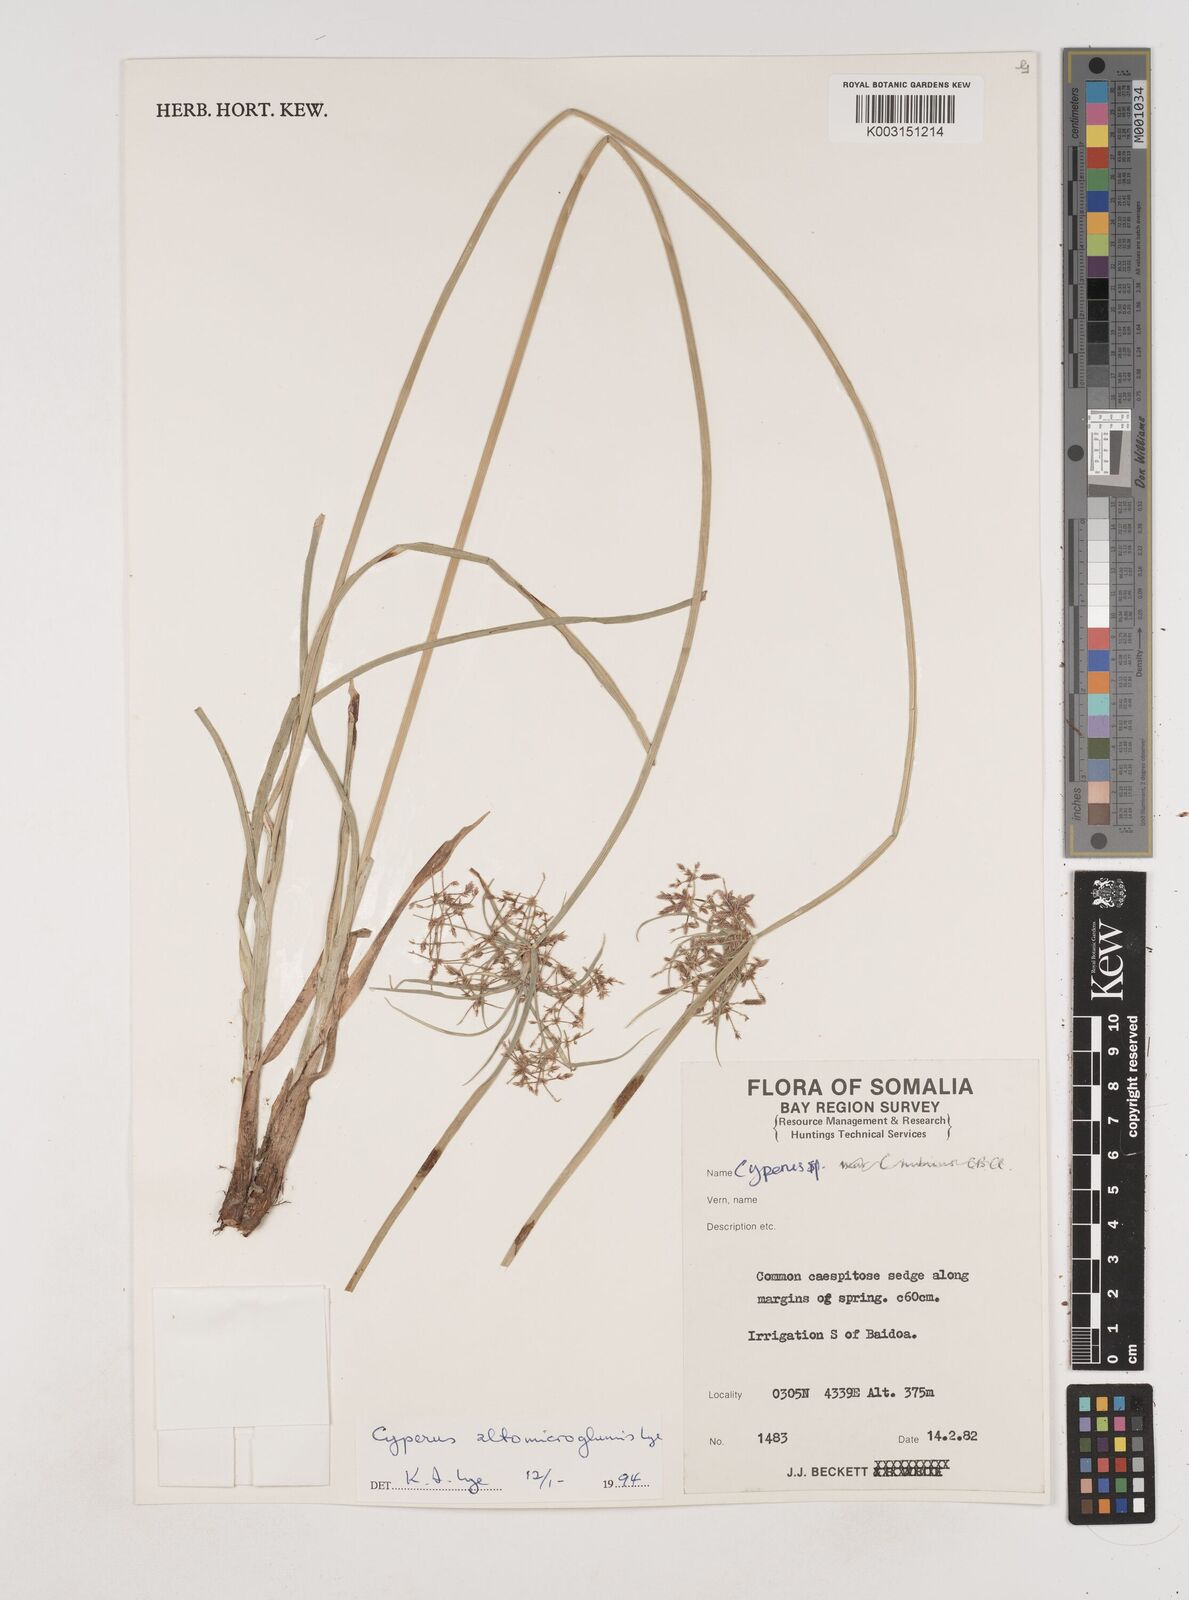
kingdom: Plantae
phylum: Tracheophyta
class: Liliopsida
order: Poales
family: Cyperaceae
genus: Cyperus
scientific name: Cyperus
